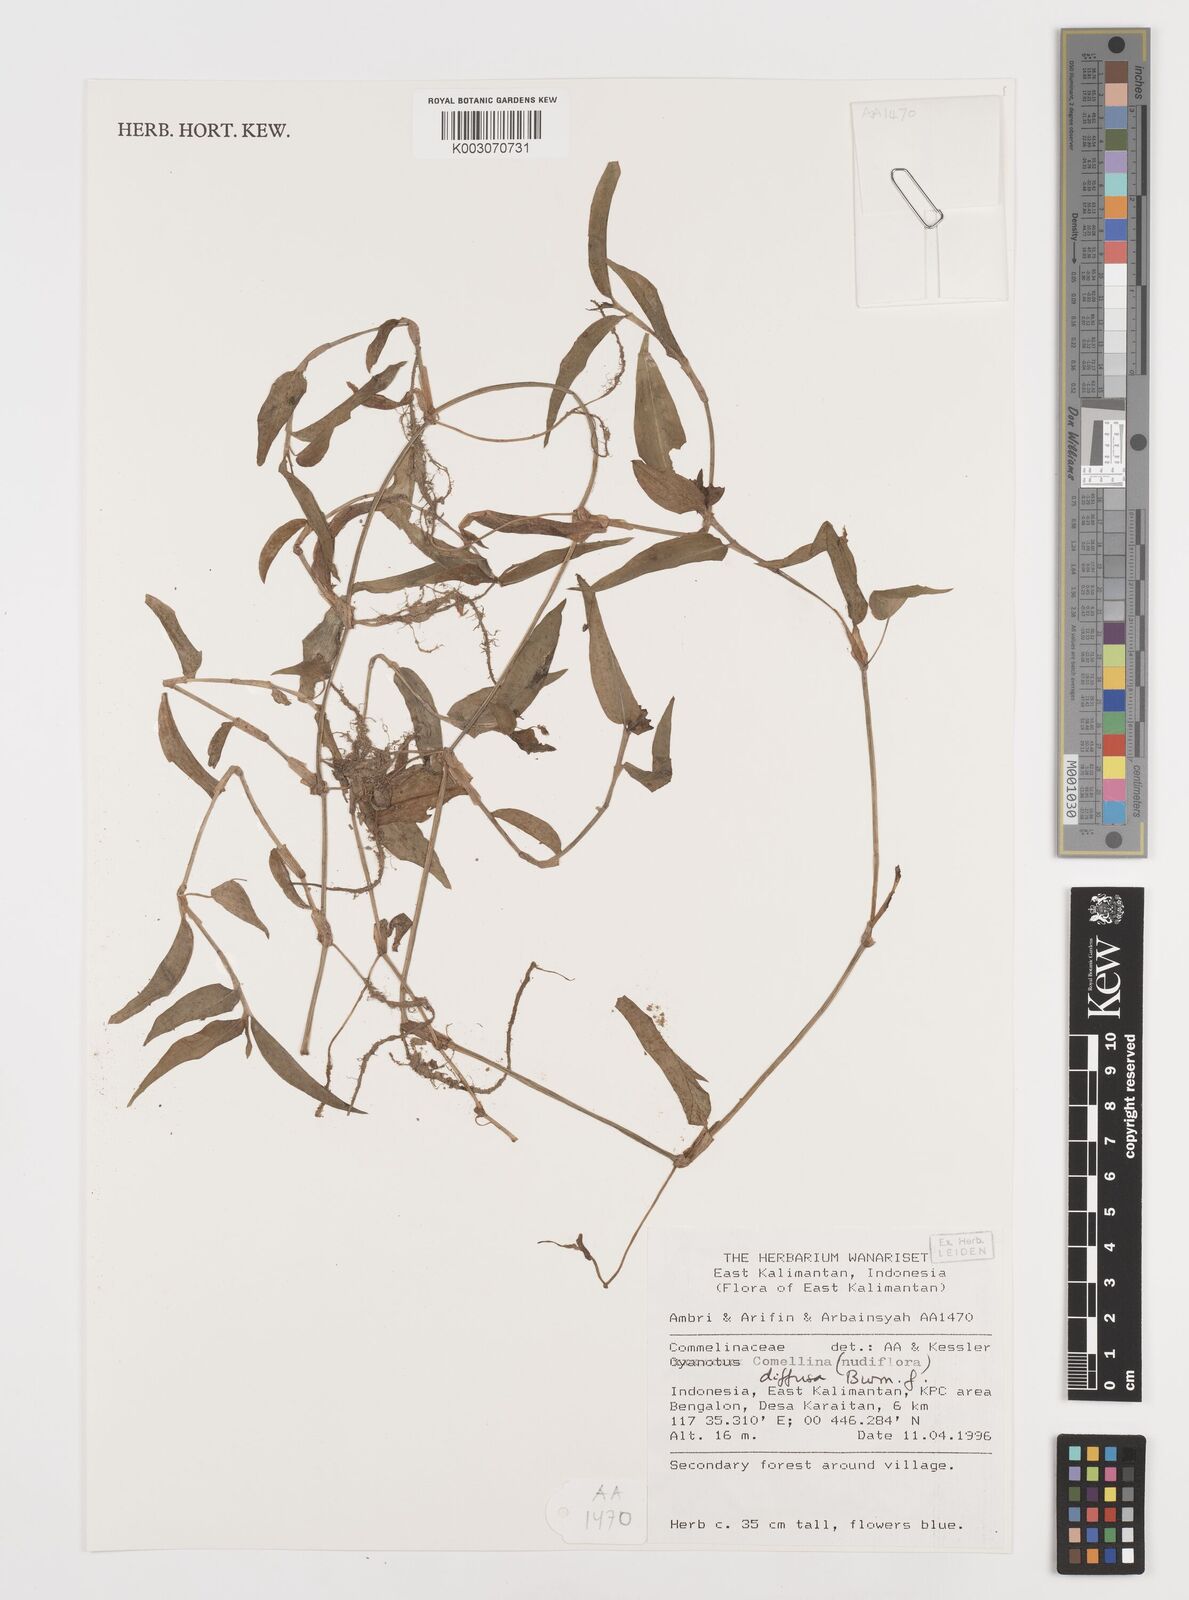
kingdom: Plantae
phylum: Tracheophyta
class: Liliopsida
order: Commelinales
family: Commelinaceae
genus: Commelina
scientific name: Commelina clavata
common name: Willow leaved dayflower
